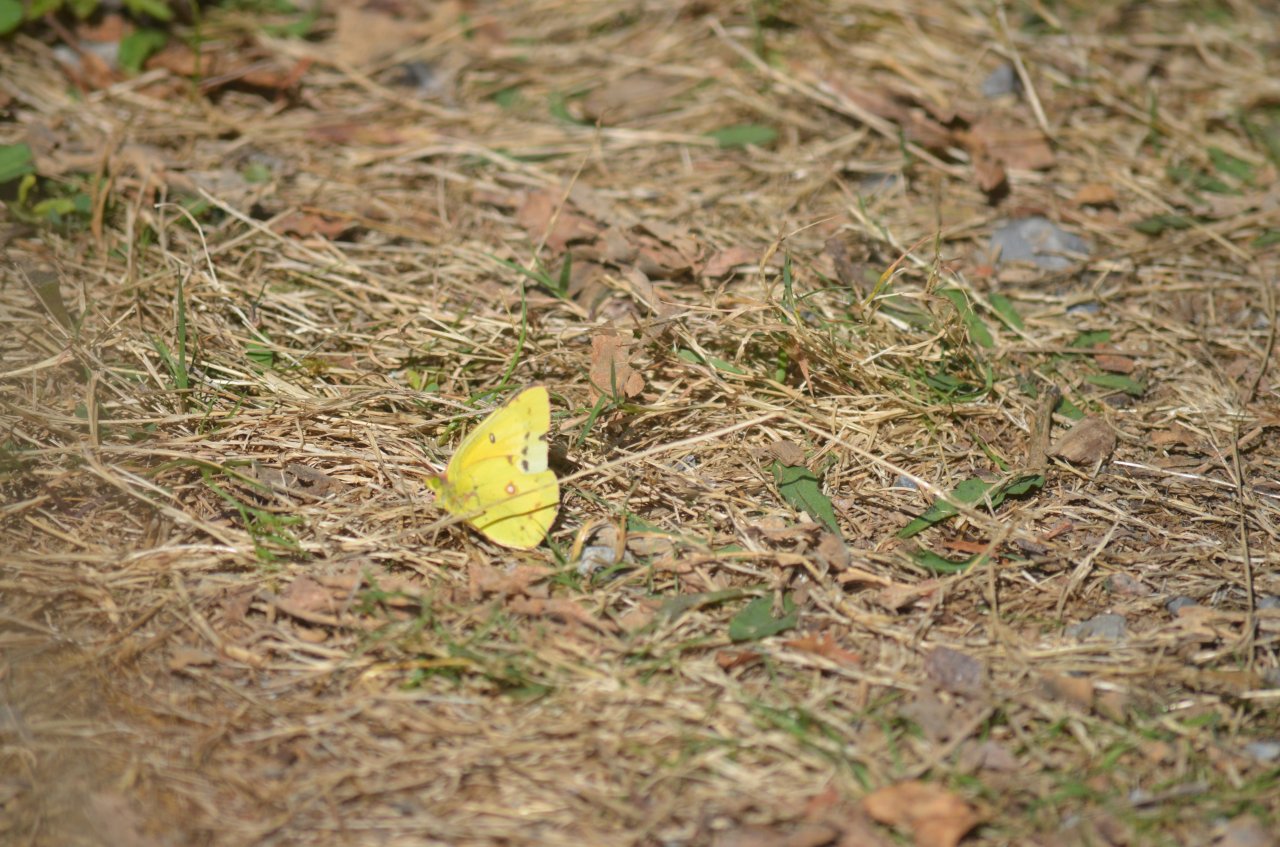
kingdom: Animalia
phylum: Arthropoda
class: Insecta
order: Lepidoptera
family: Pieridae
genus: Colias
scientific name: Colias eurytheme
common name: Orange Sulphur
